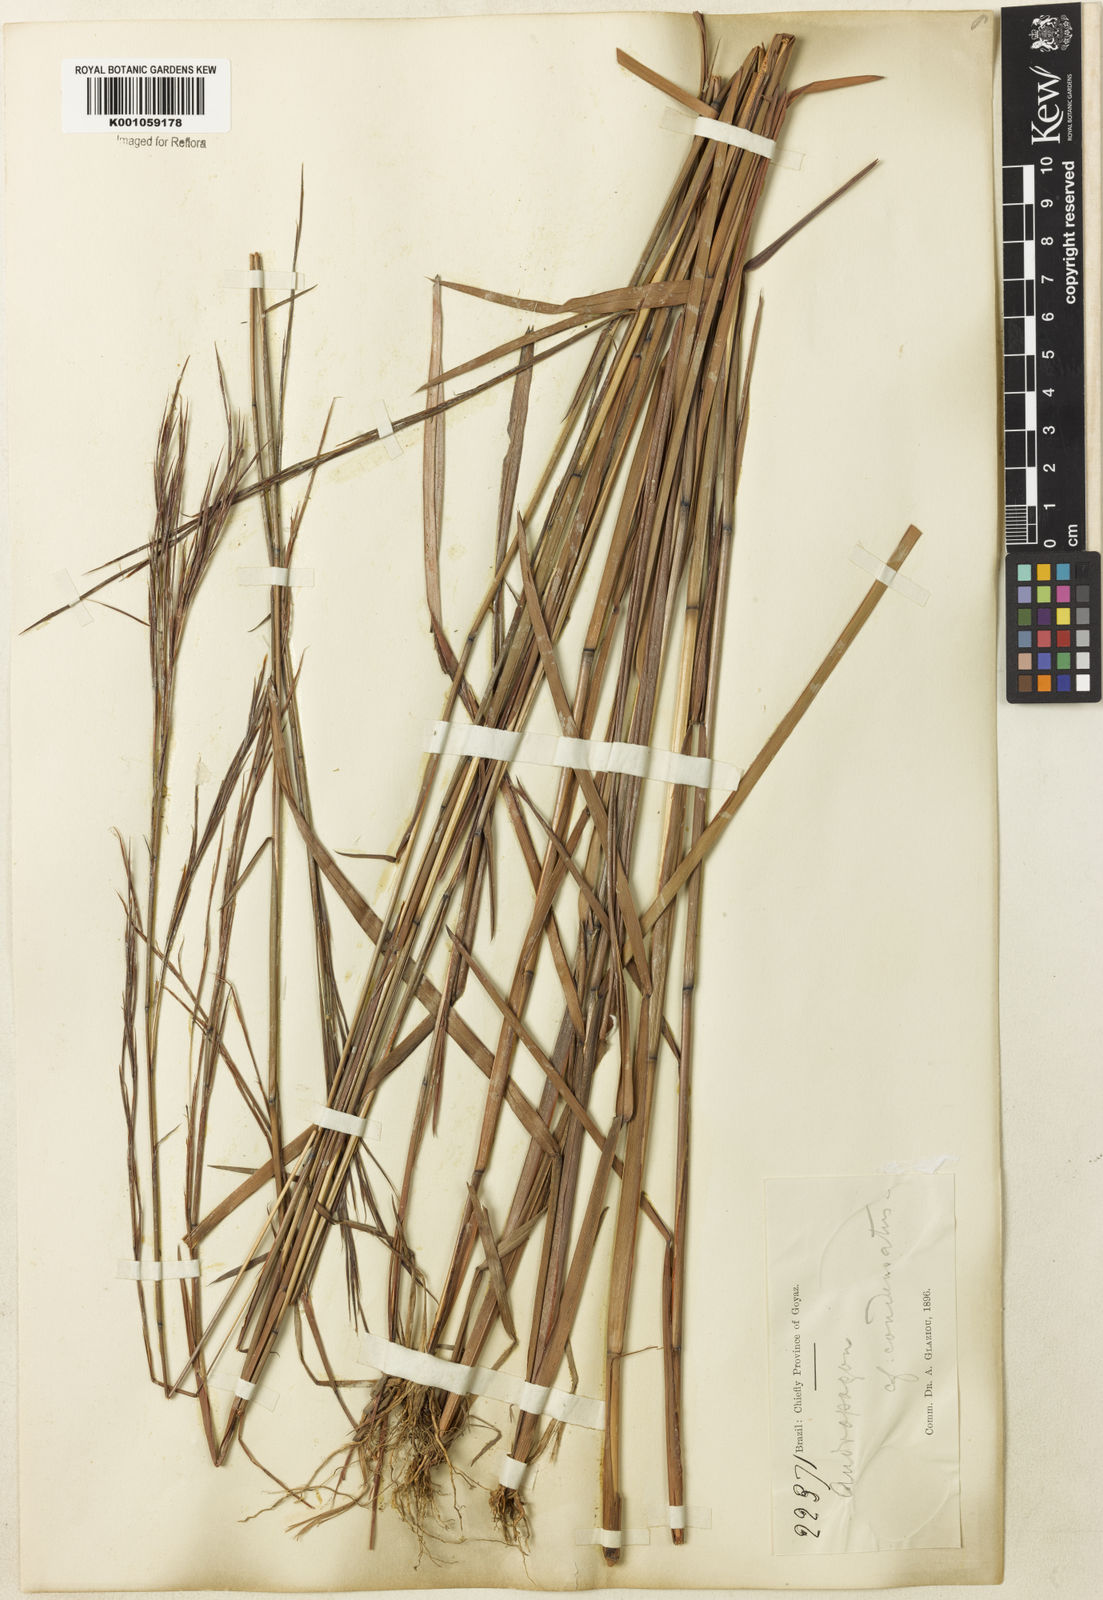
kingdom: Plantae
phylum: Tracheophyta
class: Liliopsida
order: Poales
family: Poaceae
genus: Schizachyrium
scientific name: Schizachyrium condensatum
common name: Bush beardgrass
